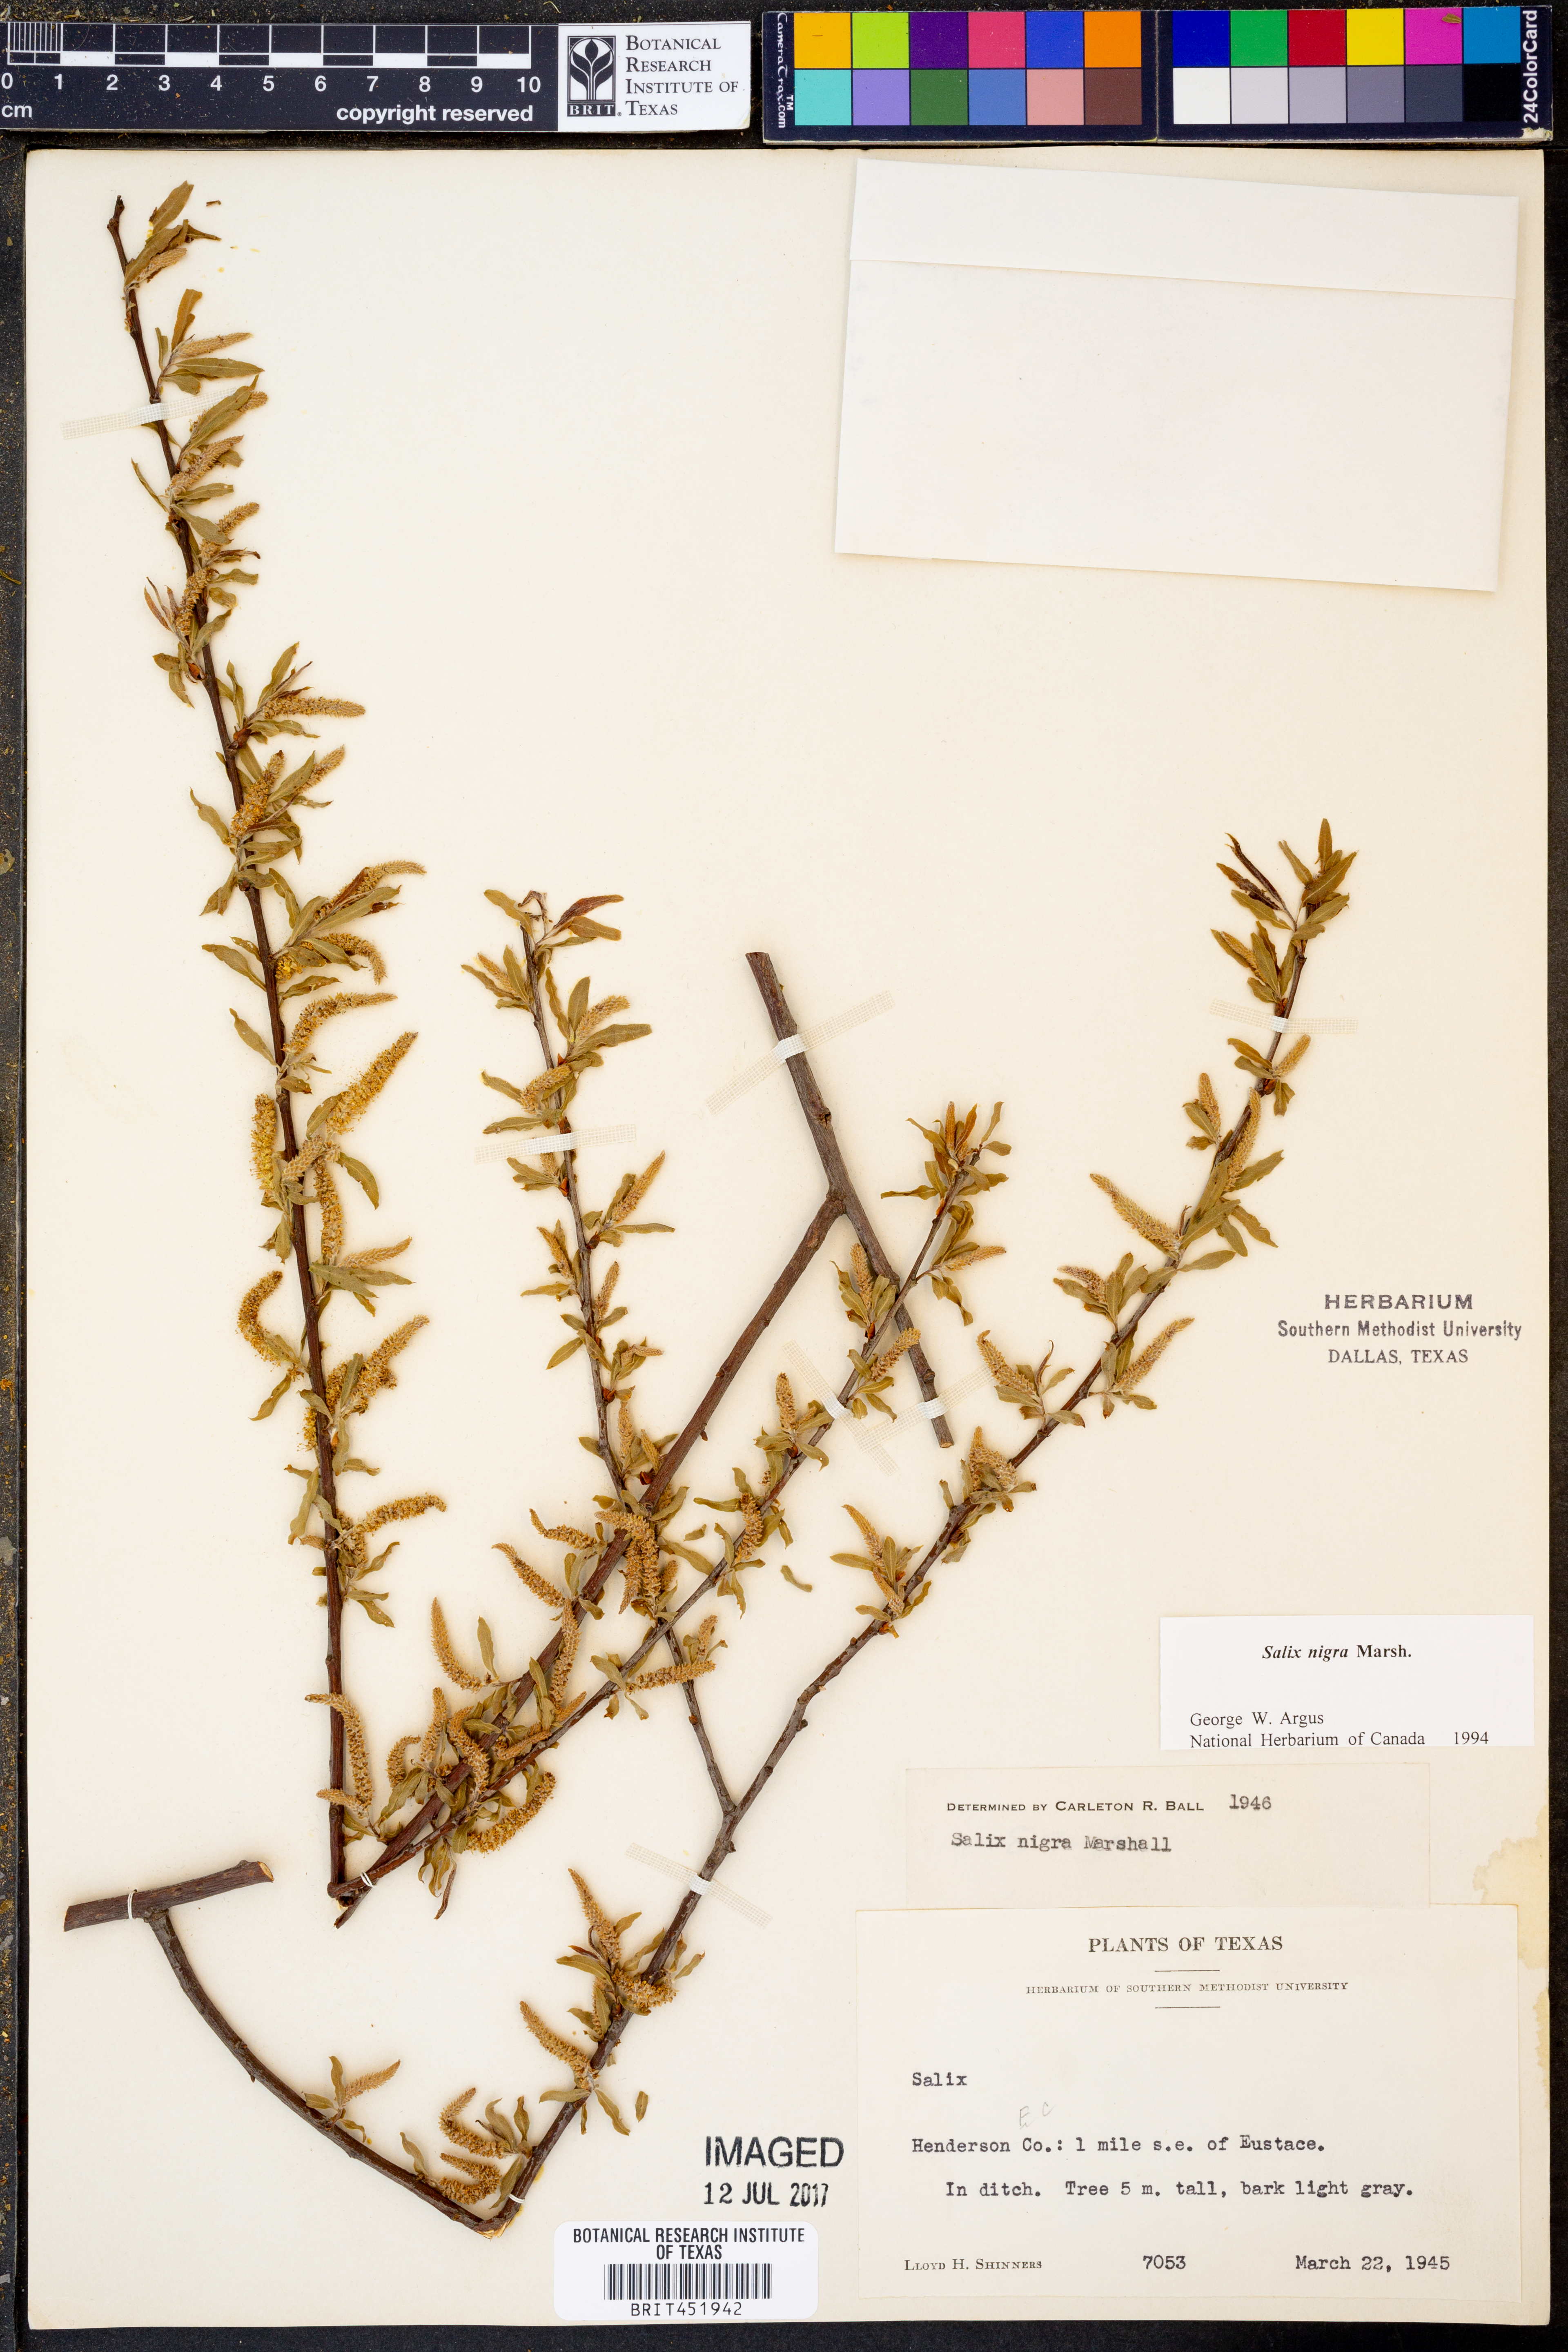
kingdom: Plantae
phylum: Tracheophyta
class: Magnoliopsida
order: Malpighiales
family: Salicaceae
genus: Salix
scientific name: Salix nigra
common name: Black willow
